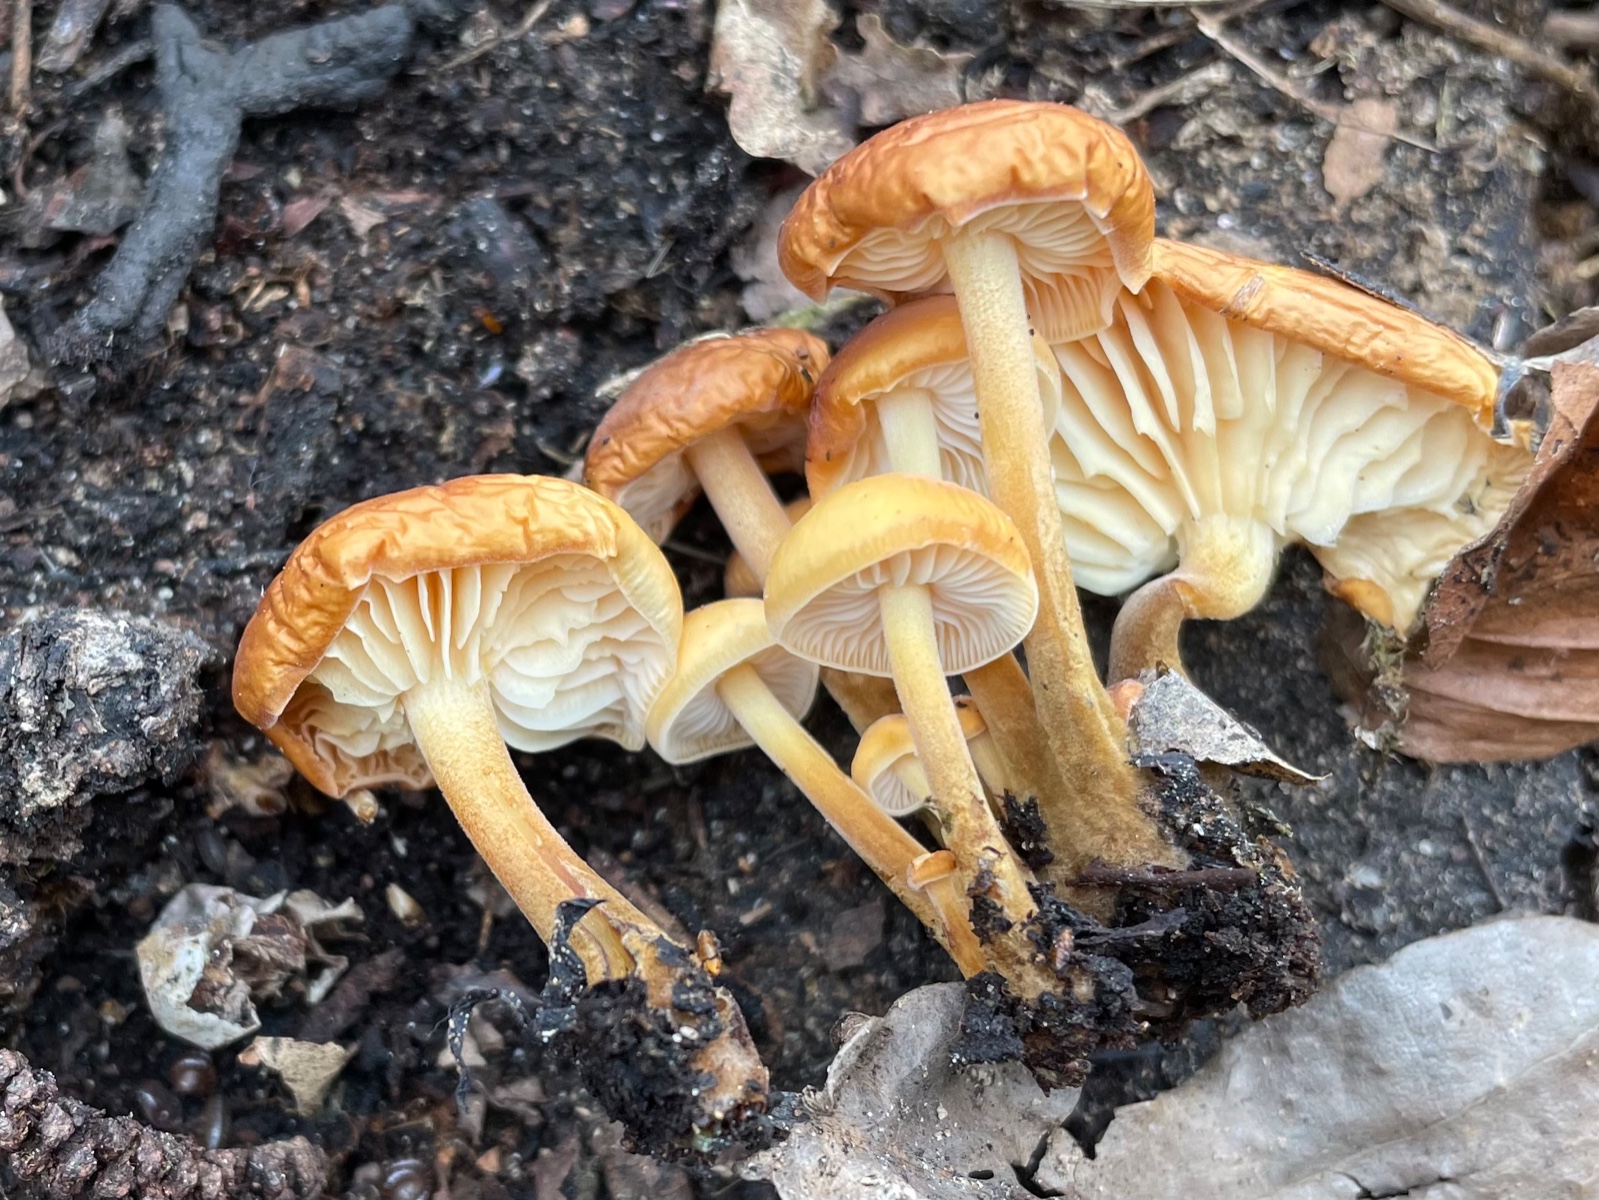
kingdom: Fungi
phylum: Basidiomycota
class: Agaricomycetes
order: Agaricales
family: Physalacriaceae
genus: Flammulina
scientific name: Flammulina
